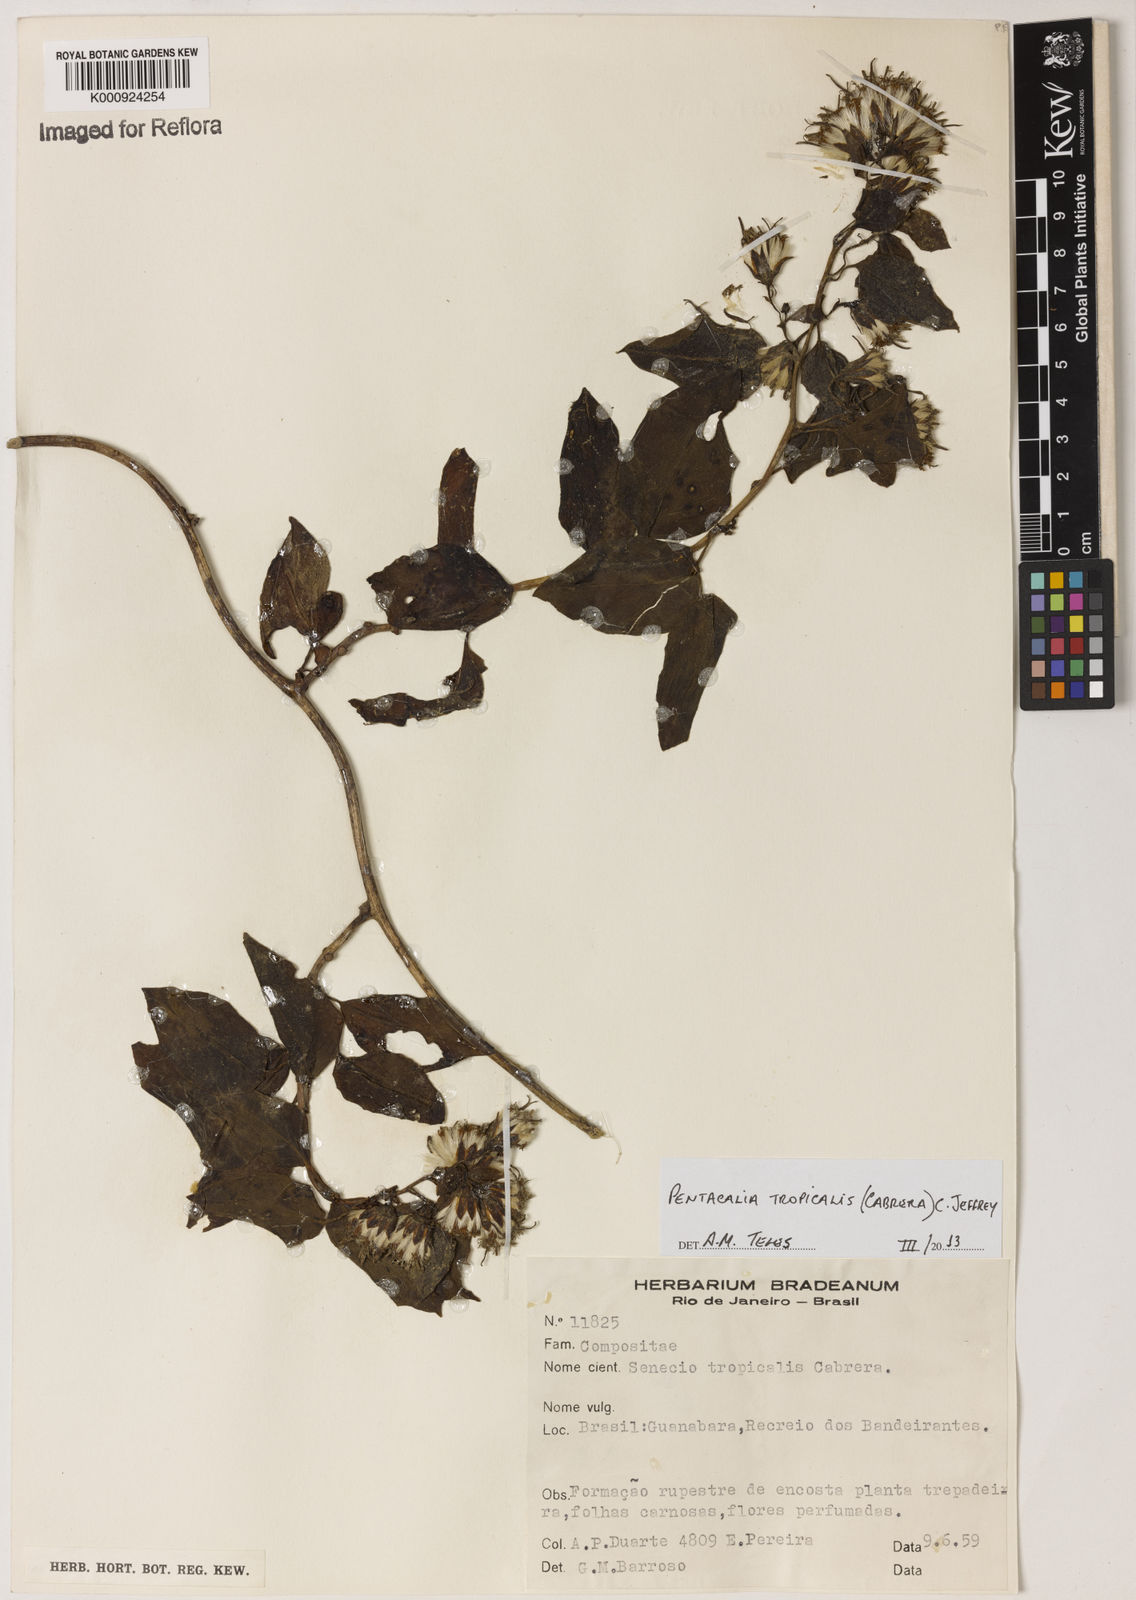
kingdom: Plantae
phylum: Tracheophyta
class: Magnoliopsida
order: Asterales
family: Asteraceae
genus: Pentacalia
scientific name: Pentacalia tropicalis
